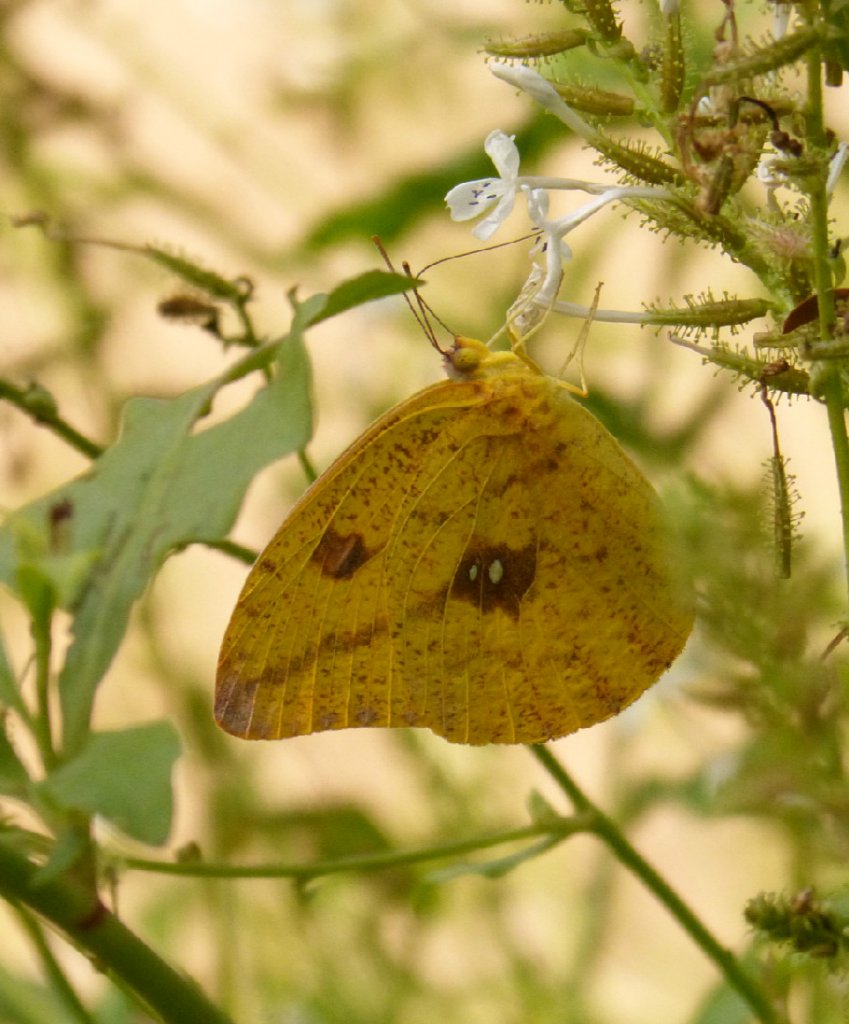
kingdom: Animalia
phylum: Arthropoda
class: Insecta
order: Lepidoptera
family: Pieridae
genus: Phoebis
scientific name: Phoebis agarithe
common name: Large Orange Sulphur
